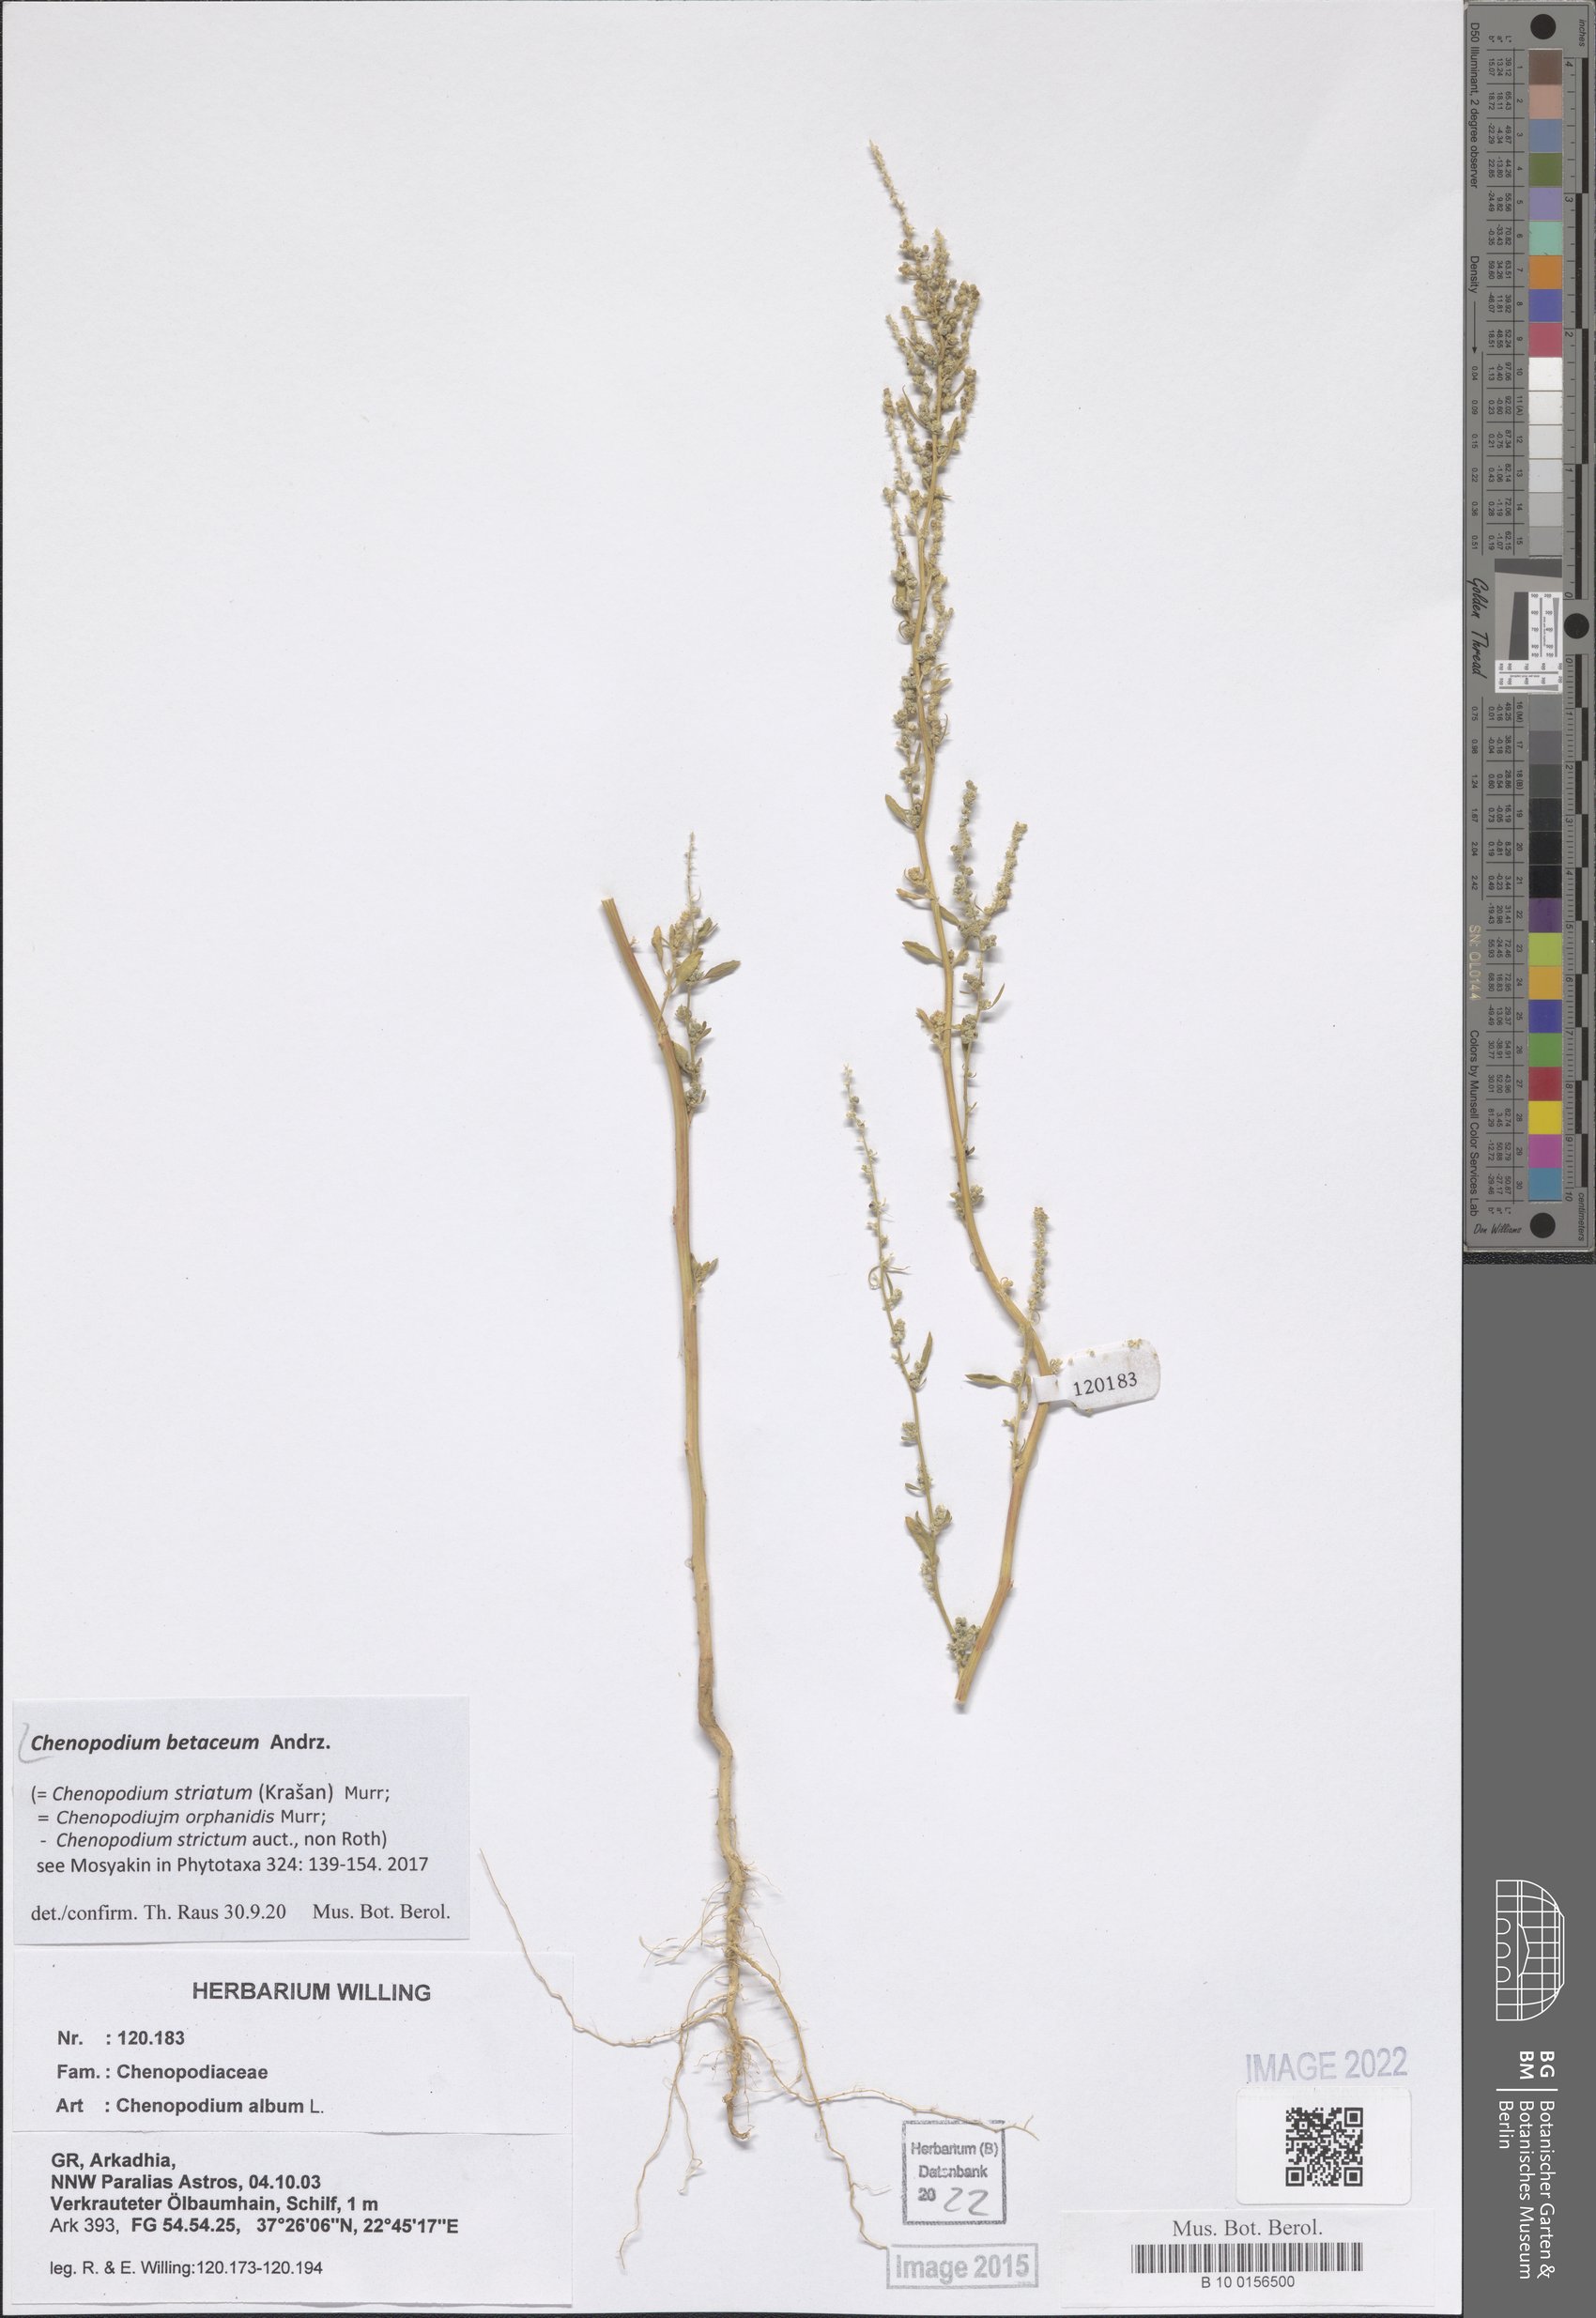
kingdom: Plantae
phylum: Tracheophyta
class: Magnoliopsida
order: Caryophyllales
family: Amaranthaceae
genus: Chenopodium
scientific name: Chenopodium betaceum
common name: Striped goosefoot
